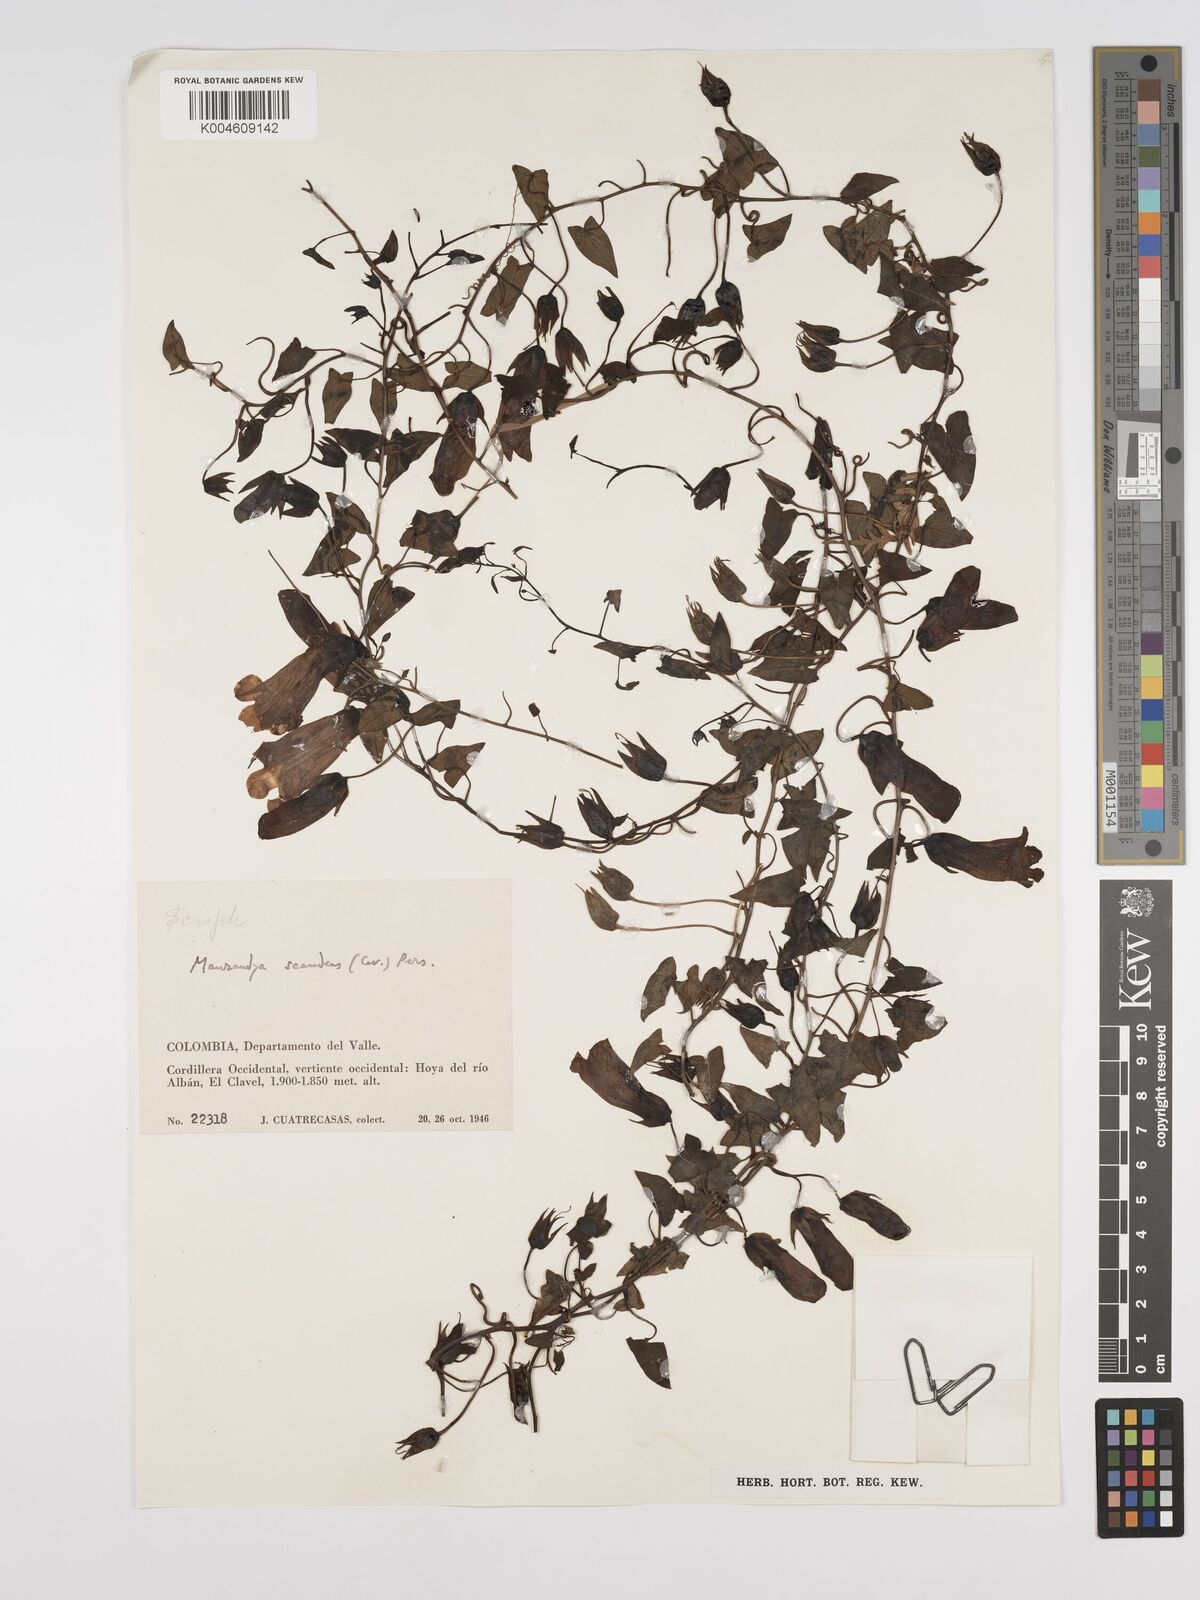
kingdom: Plantae
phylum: Tracheophyta
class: Magnoliopsida
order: Lamiales
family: Plantaginaceae
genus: Maurandya
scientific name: Maurandya scandens
